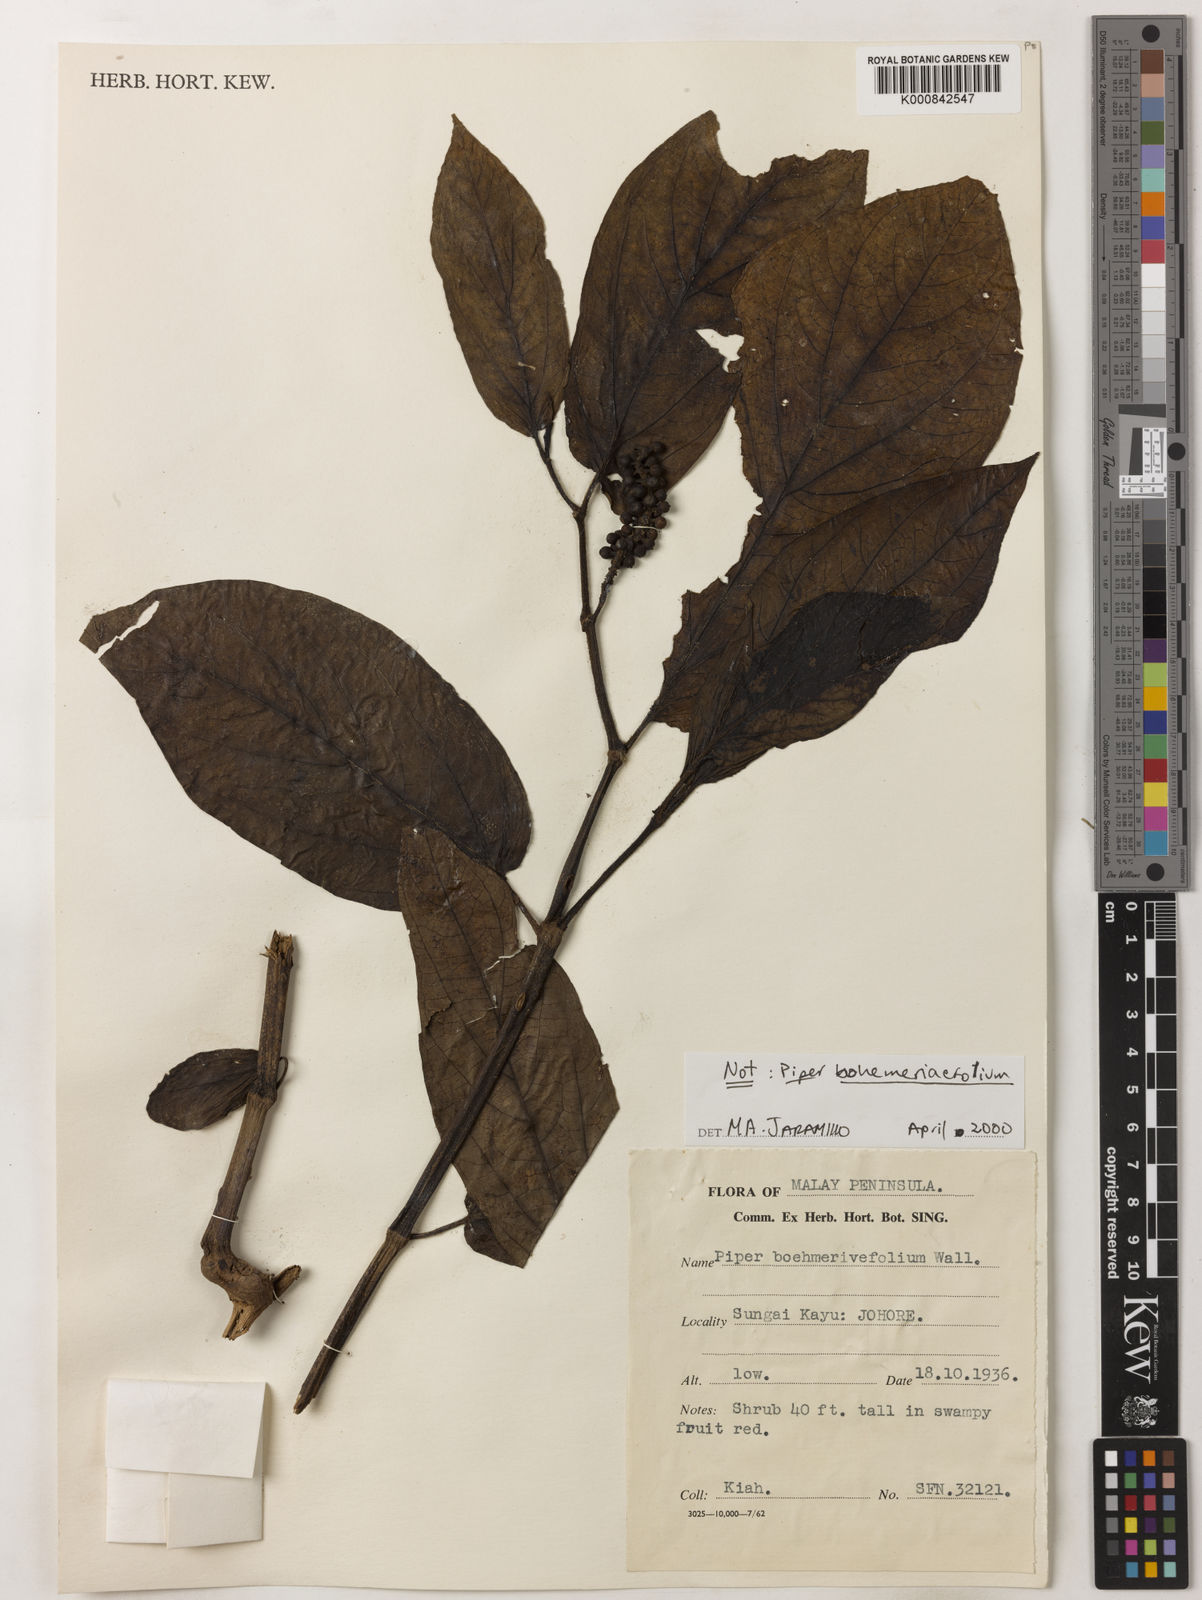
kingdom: Plantae
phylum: Tracheophyta
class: Magnoliopsida
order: Piperales
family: Piperaceae
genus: Piper
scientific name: Piper
